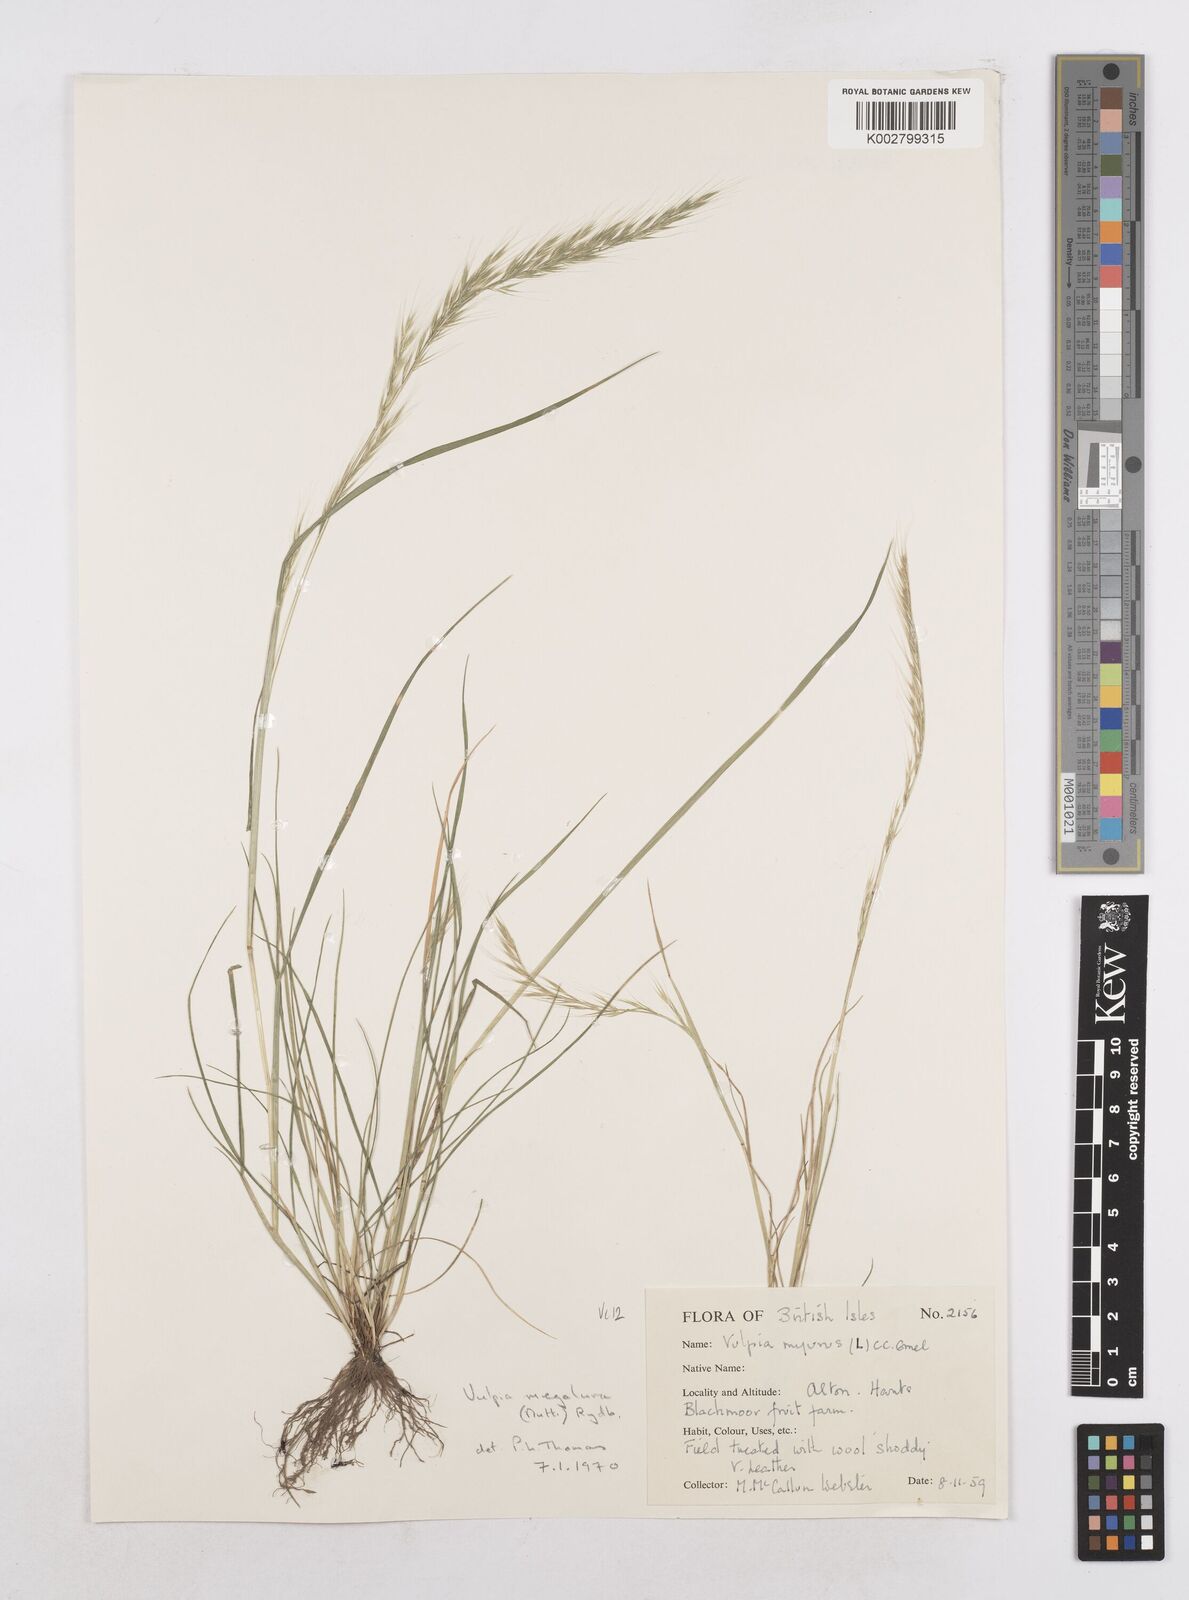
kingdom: Plantae
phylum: Tracheophyta
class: Liliopsida
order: Poales
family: Poaceae
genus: Festuca
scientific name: Festuca myuros
